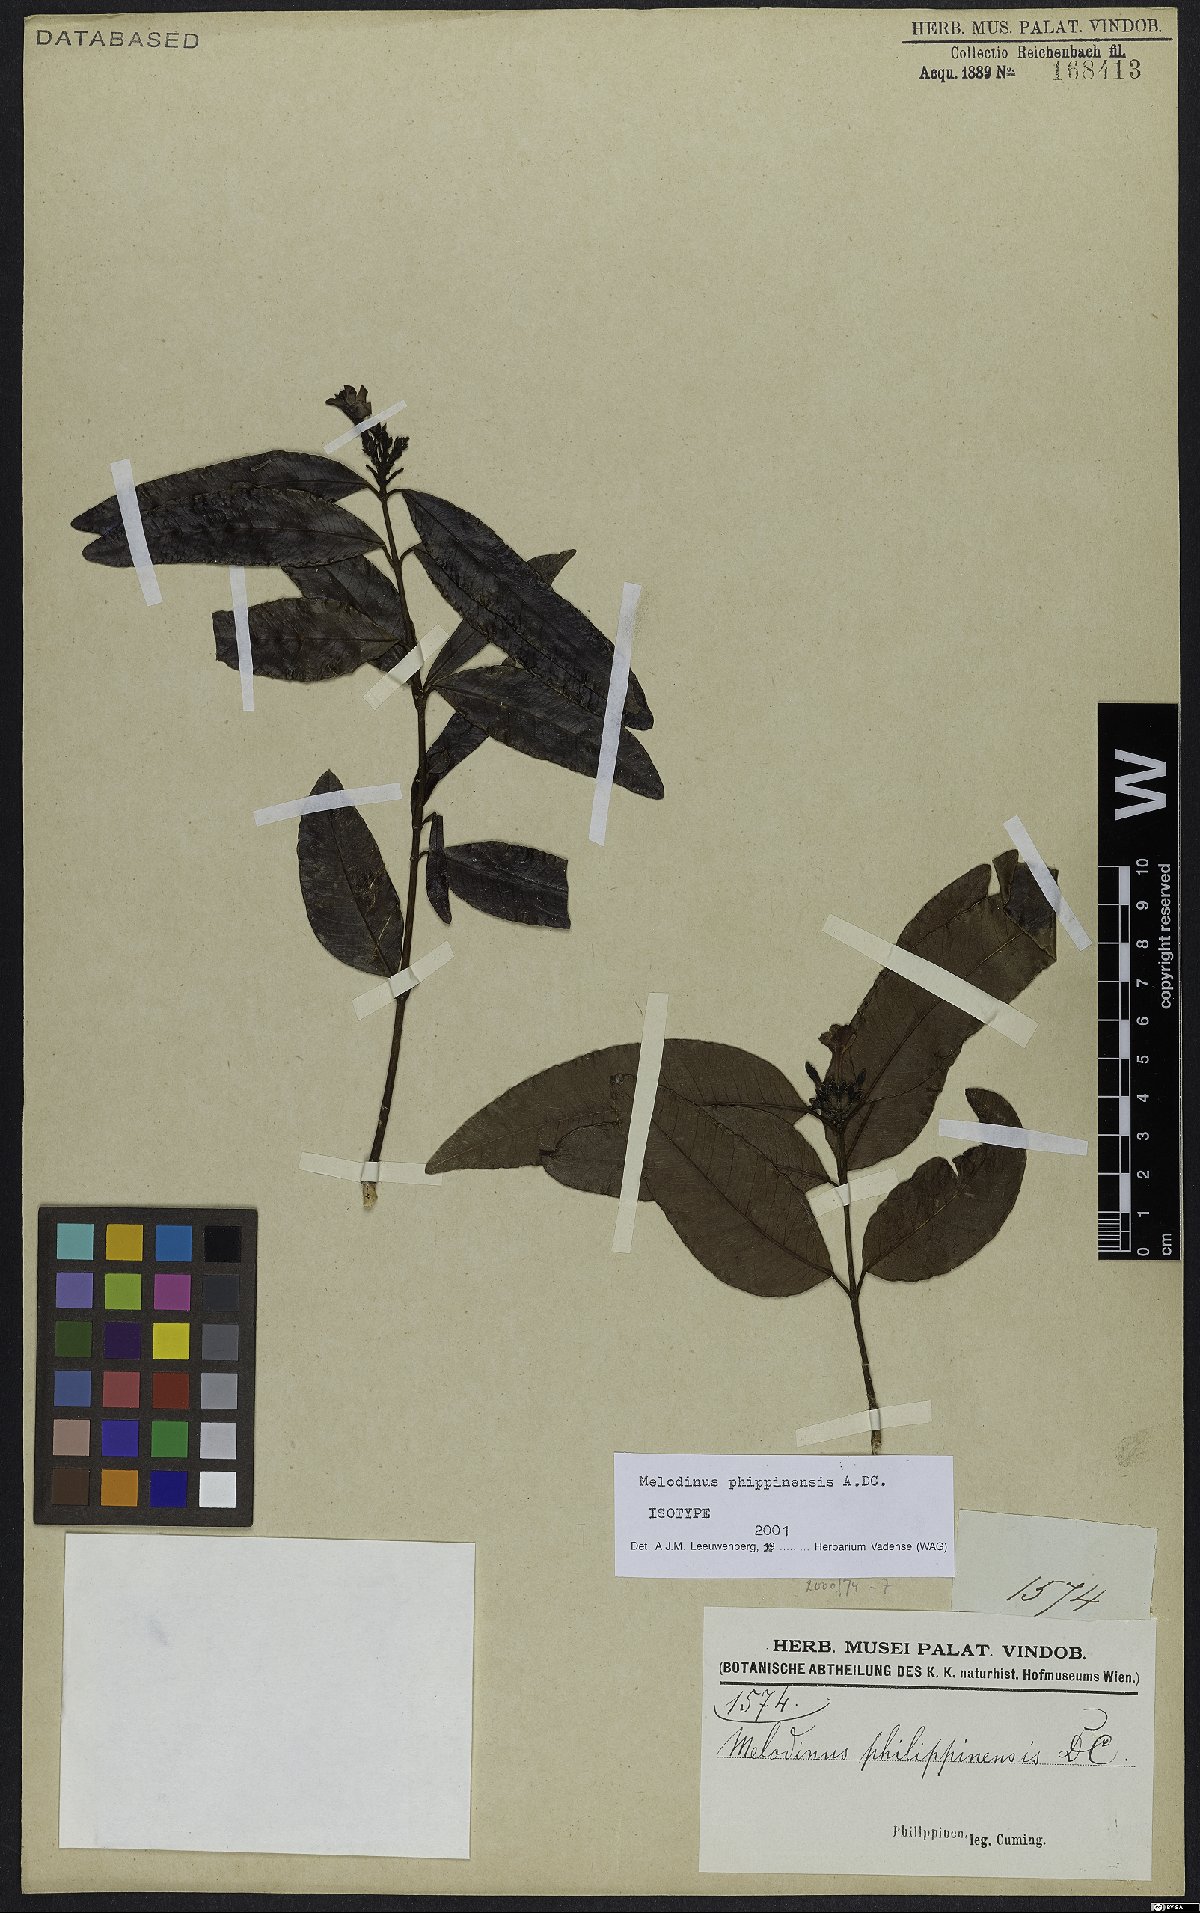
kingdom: Plantae
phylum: Tracheophyta
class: Magnoliopsida
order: Gentianales
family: Apocynaceae
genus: Melodinus
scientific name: Melodinus philippinensis
